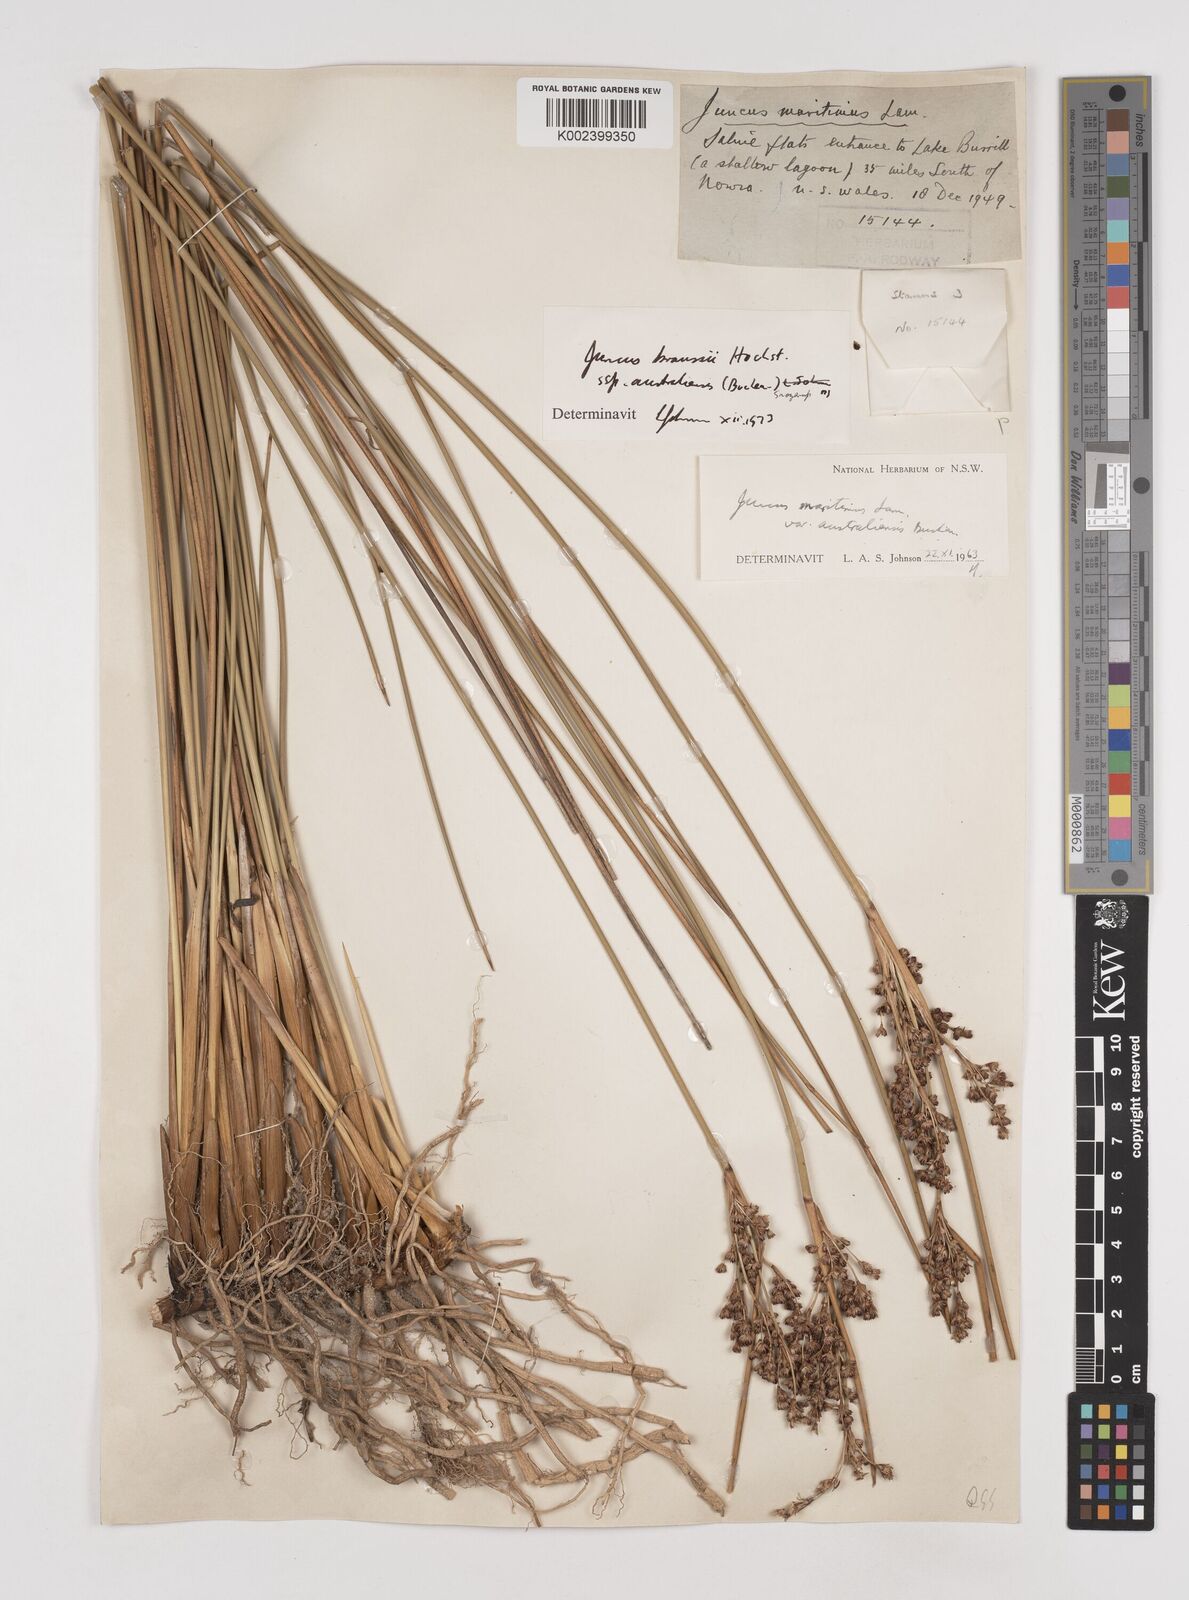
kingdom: Plantae
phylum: Tracheophyta
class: Liliopsida
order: Poales
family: Juncaceae
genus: Juncus
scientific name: Juncus kraussii
